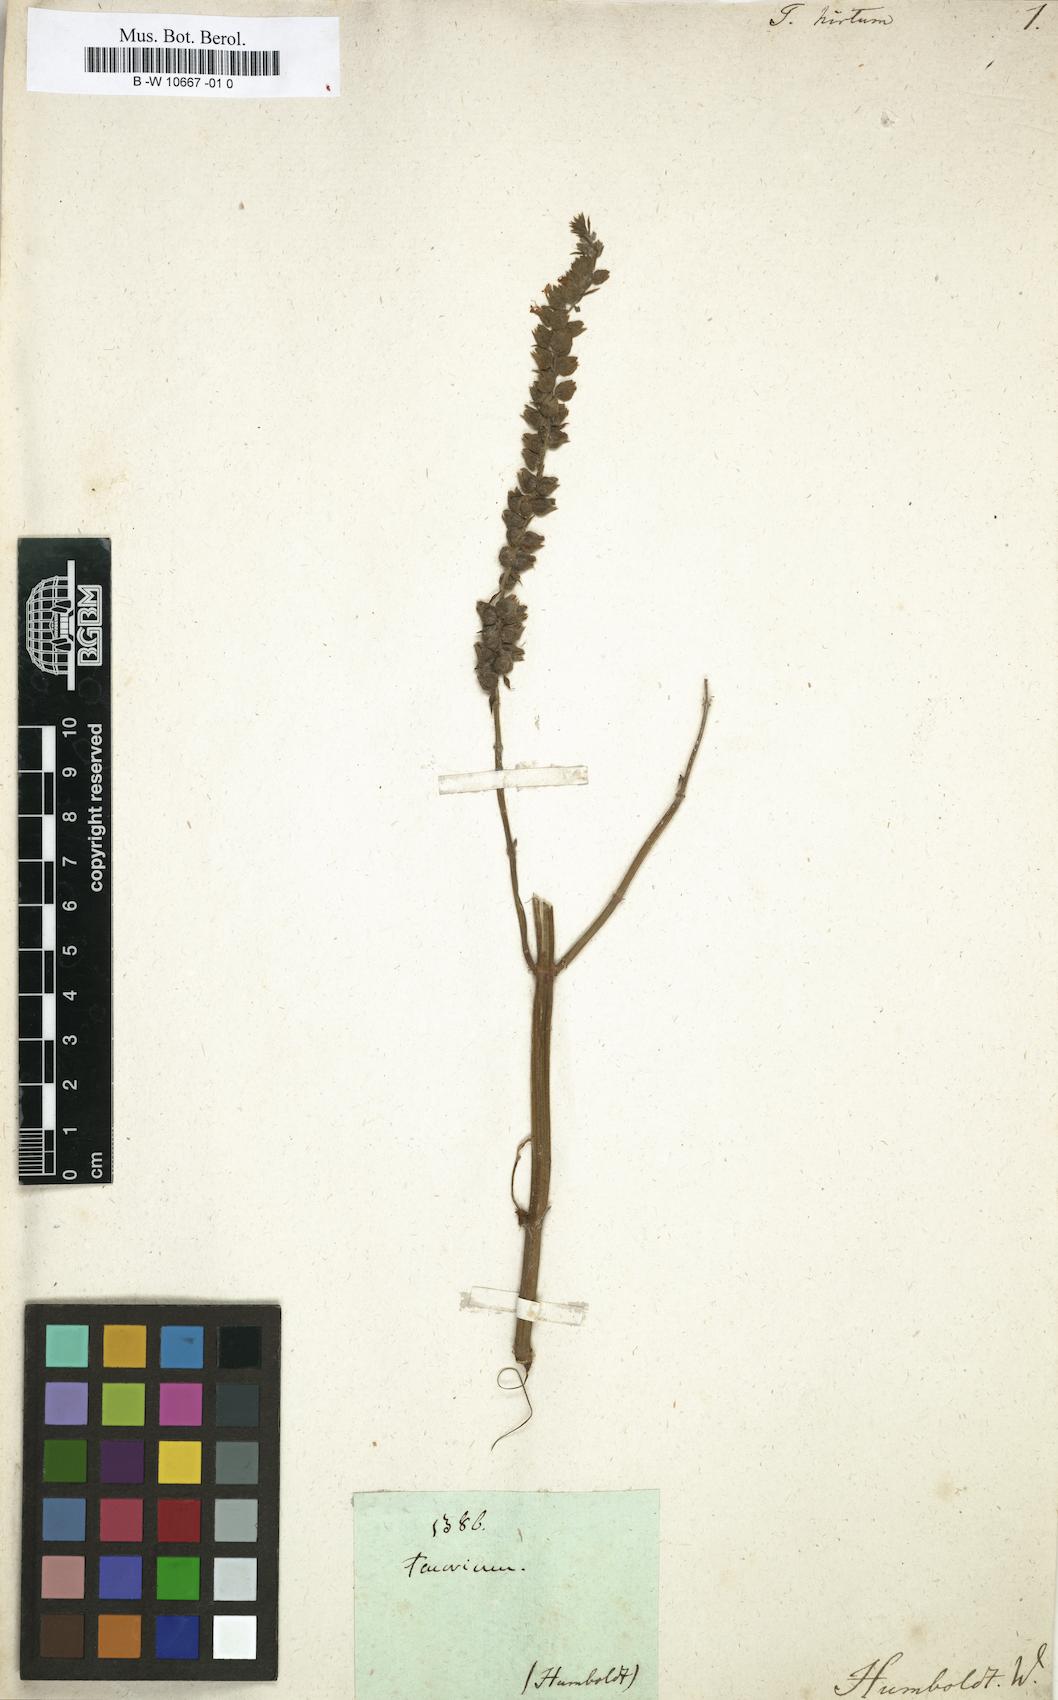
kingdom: Plantae
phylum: Tracheophyta
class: Magnoliopsida
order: Lamiales
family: Lamiaceae
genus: Teucrium
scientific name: Teucrium vesicarium
